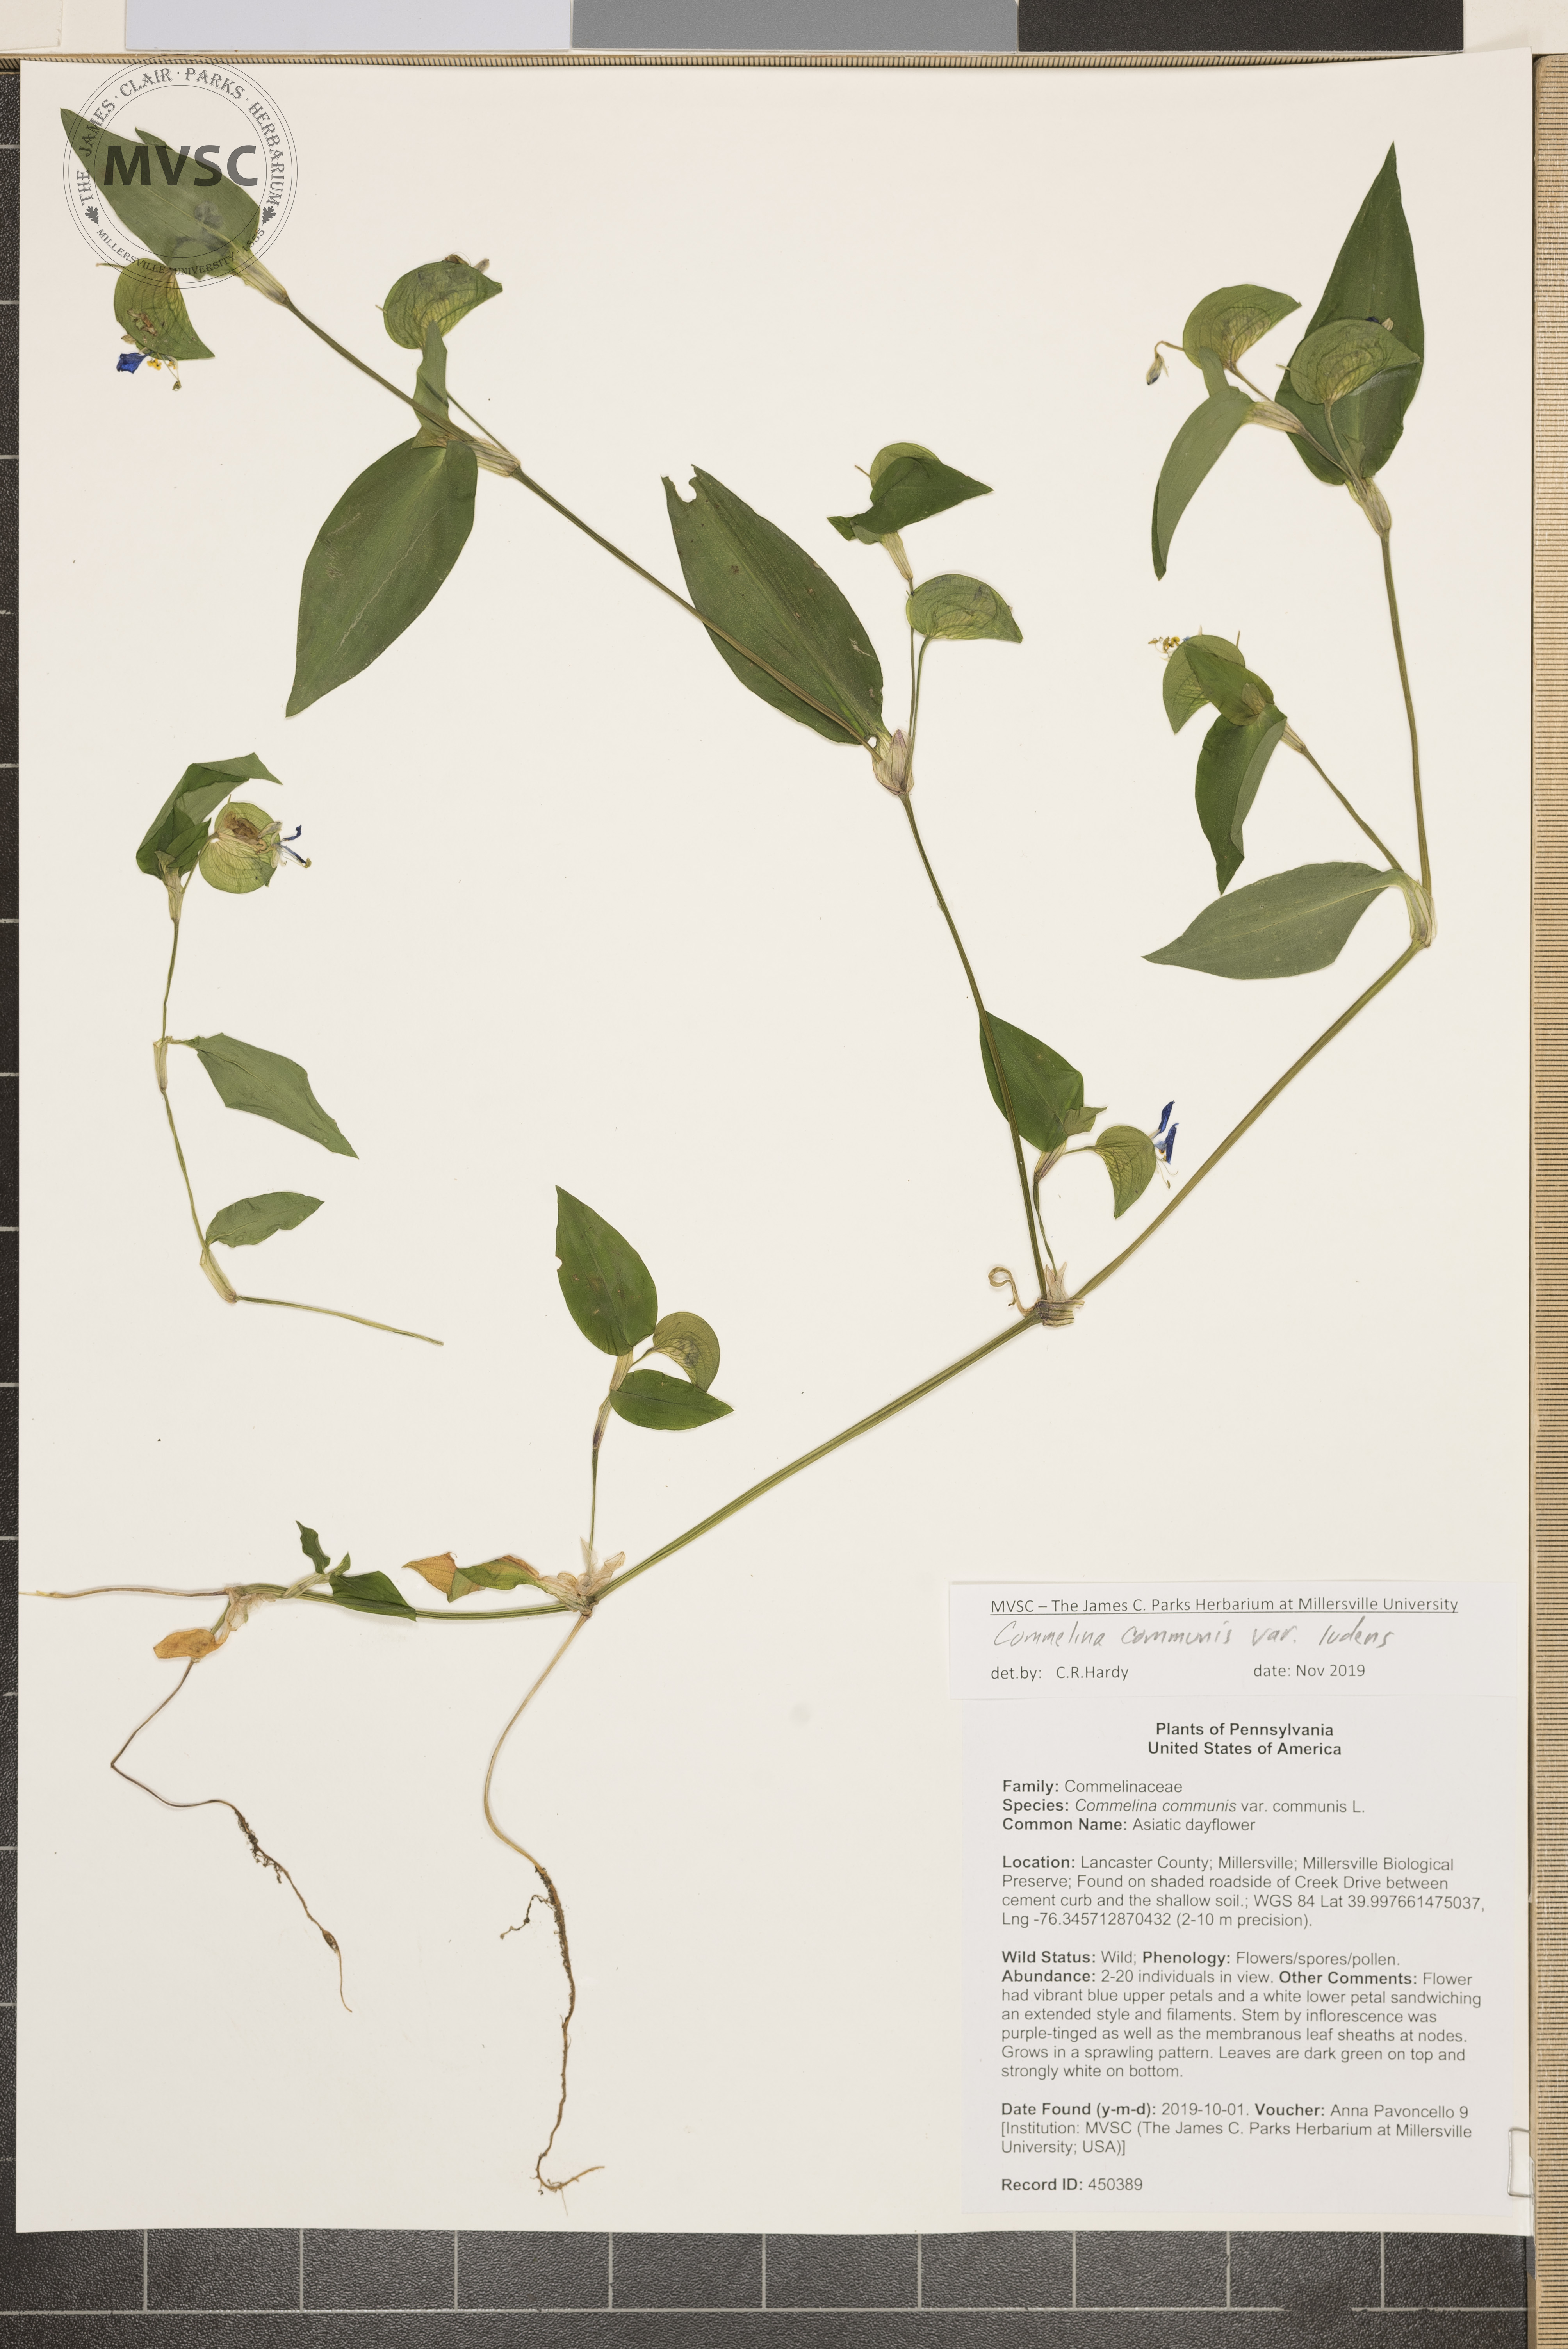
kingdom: Plantae
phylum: Tracheophyta
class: Liliopsida
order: Commelinales
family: Commelinaceae
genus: Commelina
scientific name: Commelina communis
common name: Asiatic dayflower
